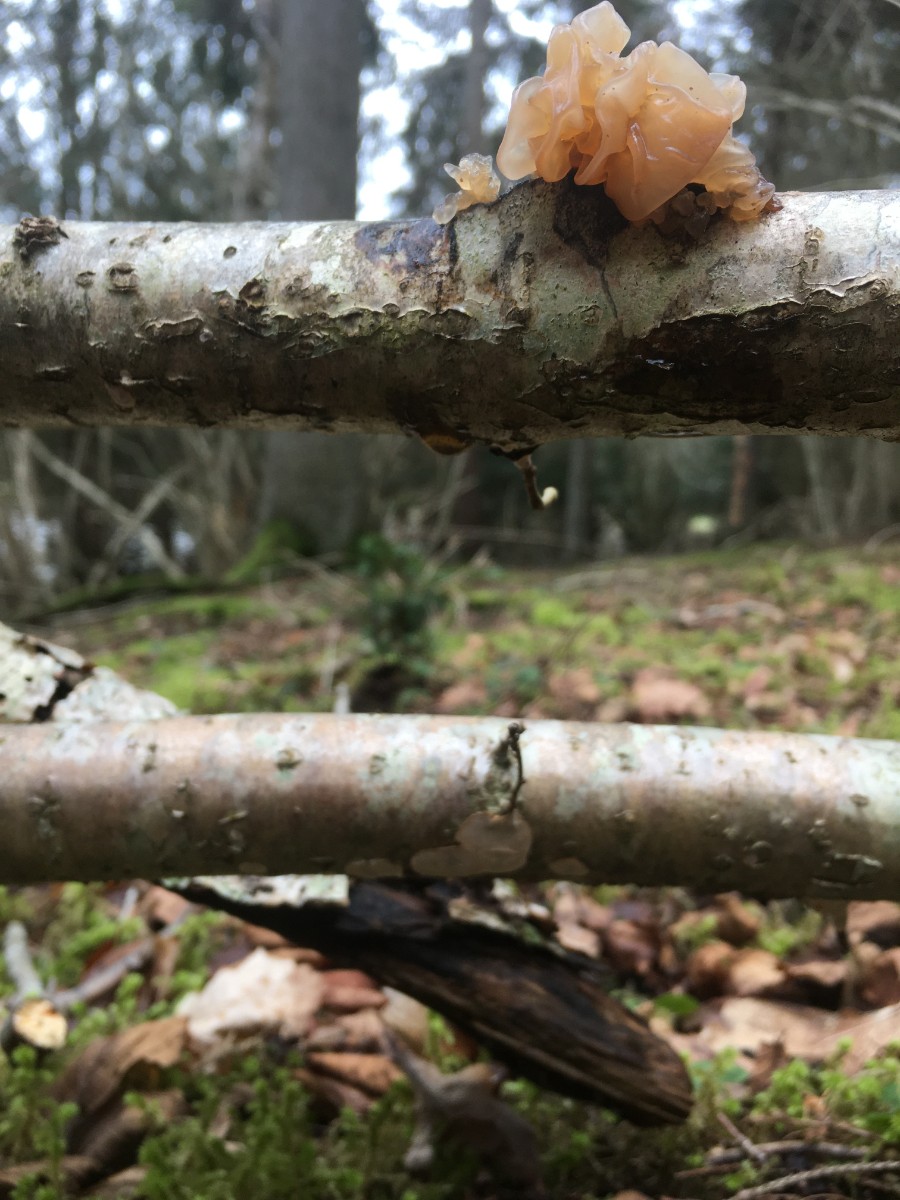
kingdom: Fungi
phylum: Basidiomycota
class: Tremellomycetes
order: Tremellales
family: Tremellaceae
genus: Phaeotremella
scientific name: Phaeotremella frondosa
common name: kæmpe-bævresvamp
